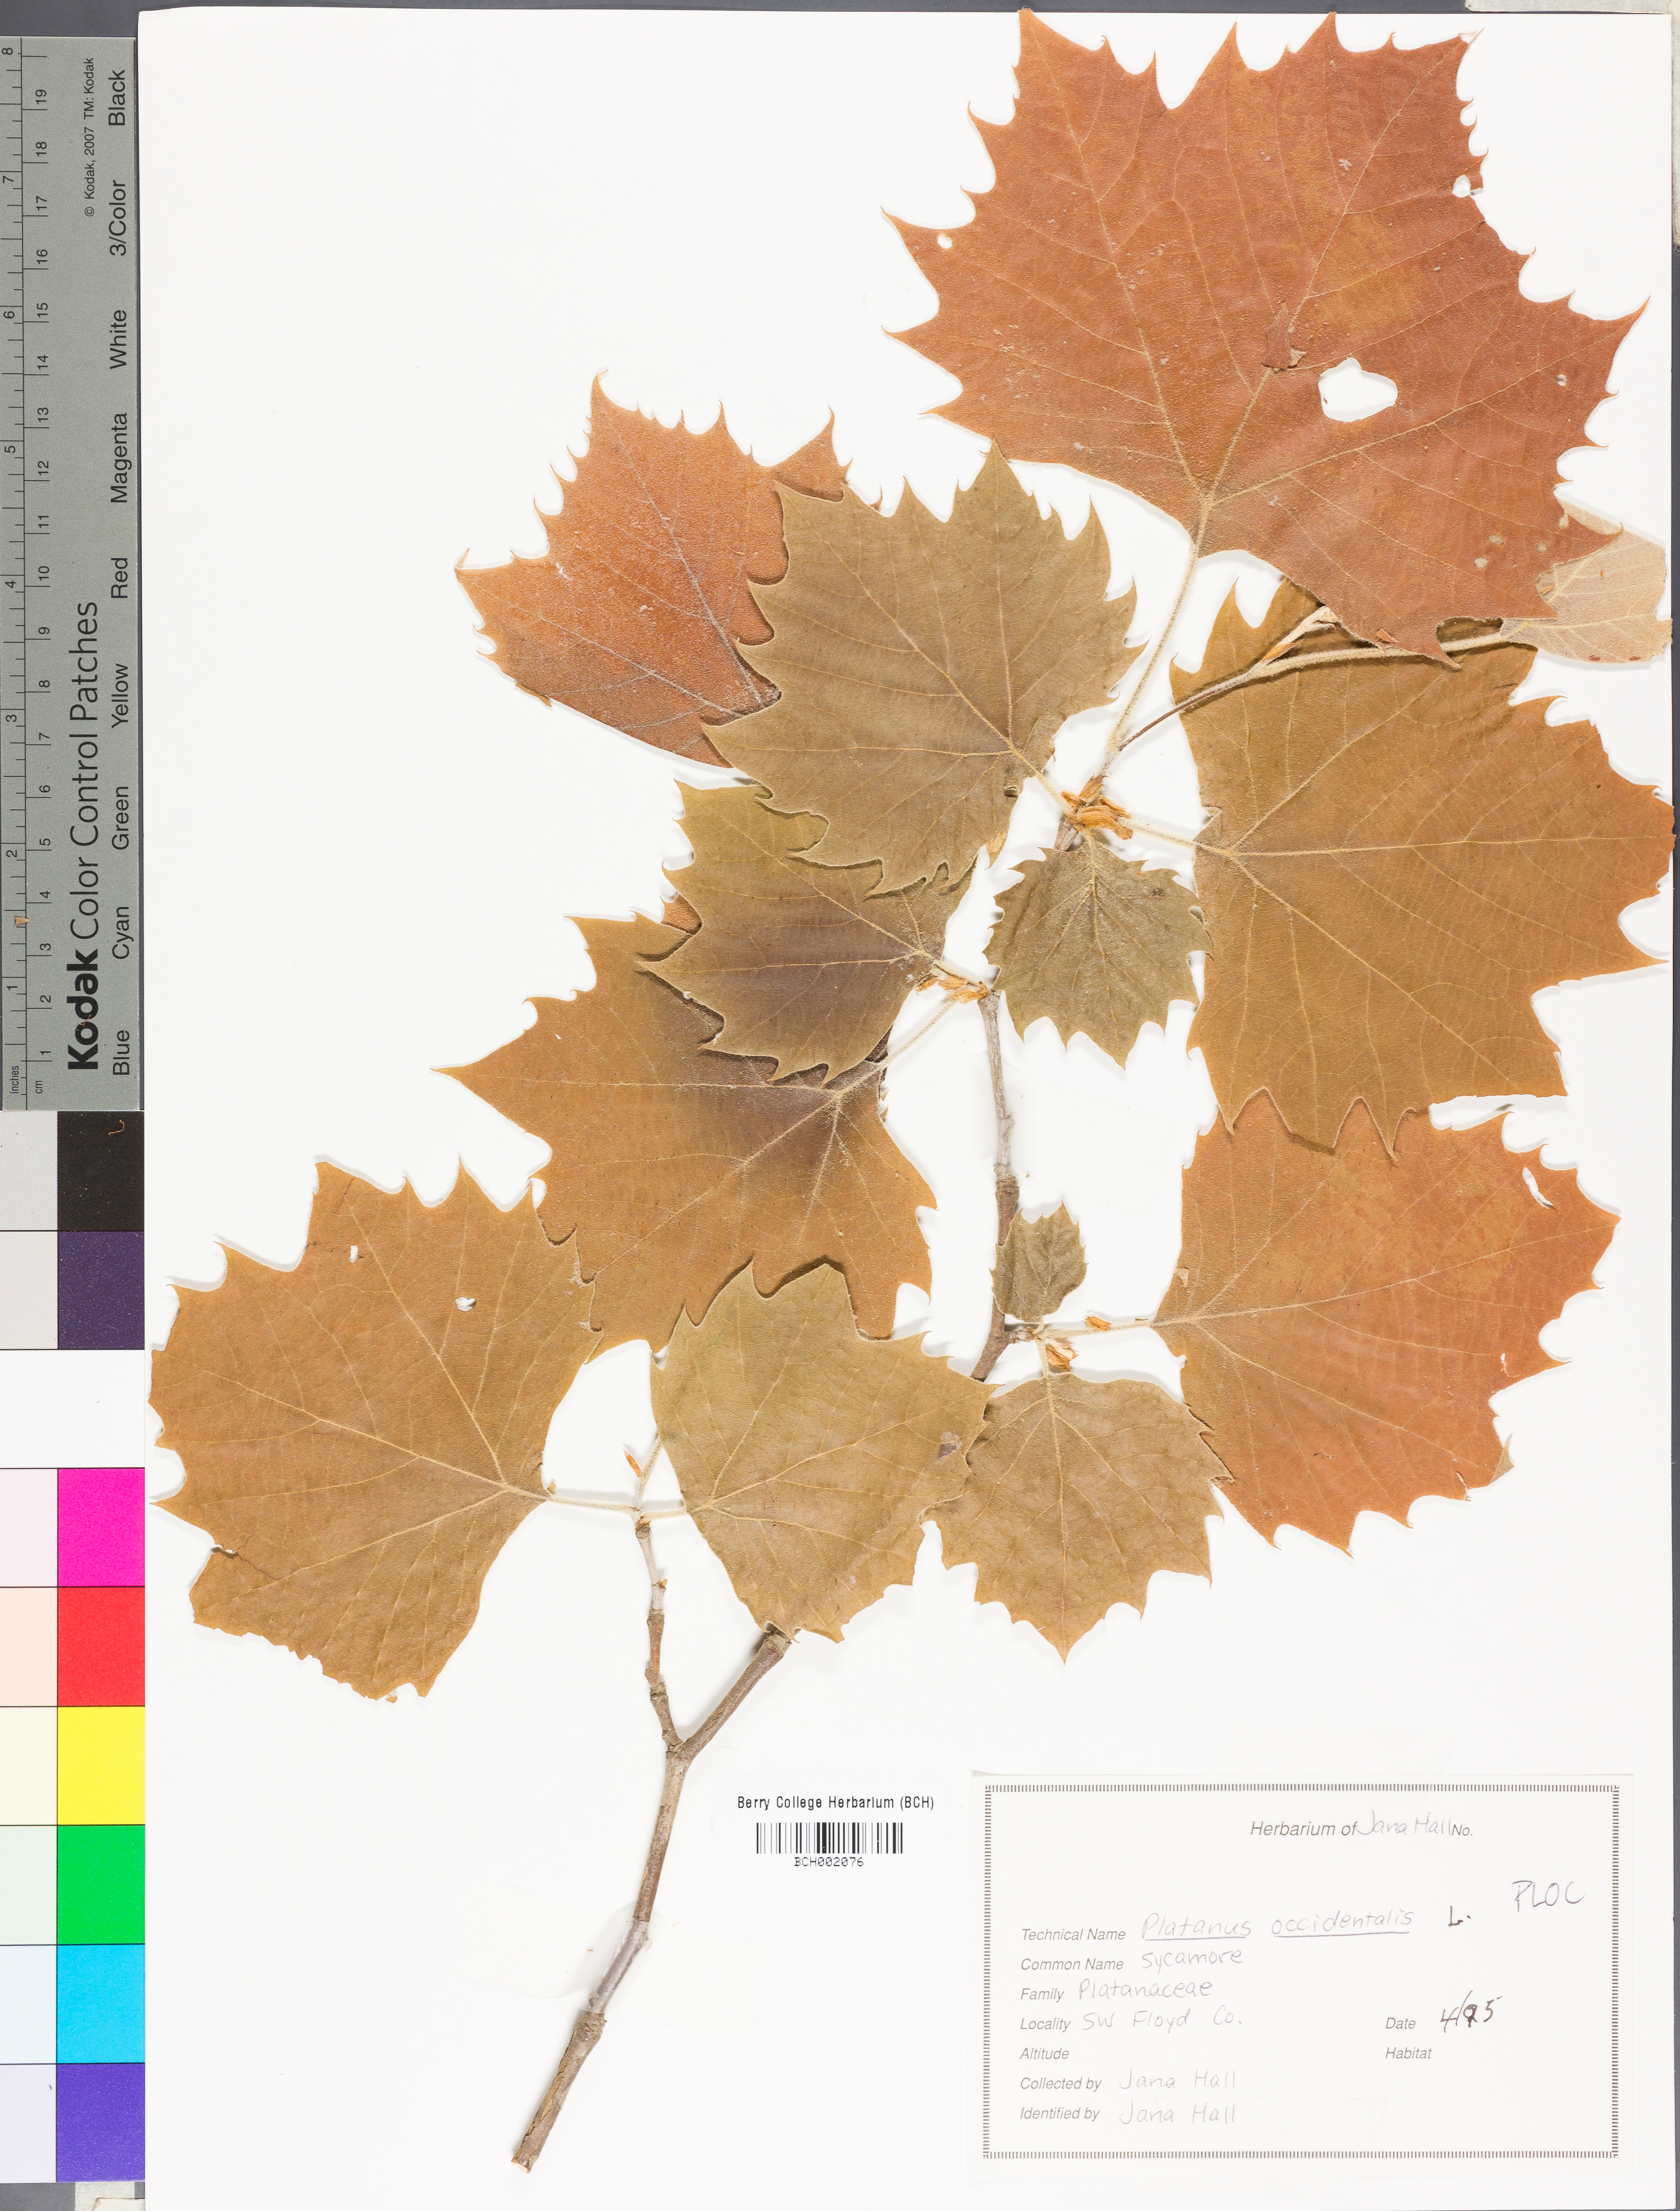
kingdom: Plantae
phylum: Tracheophyta
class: Magnoliopsida
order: Proteales
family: Platanaceae
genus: Platanus
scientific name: Platanus occidentalis
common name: American sycamore
